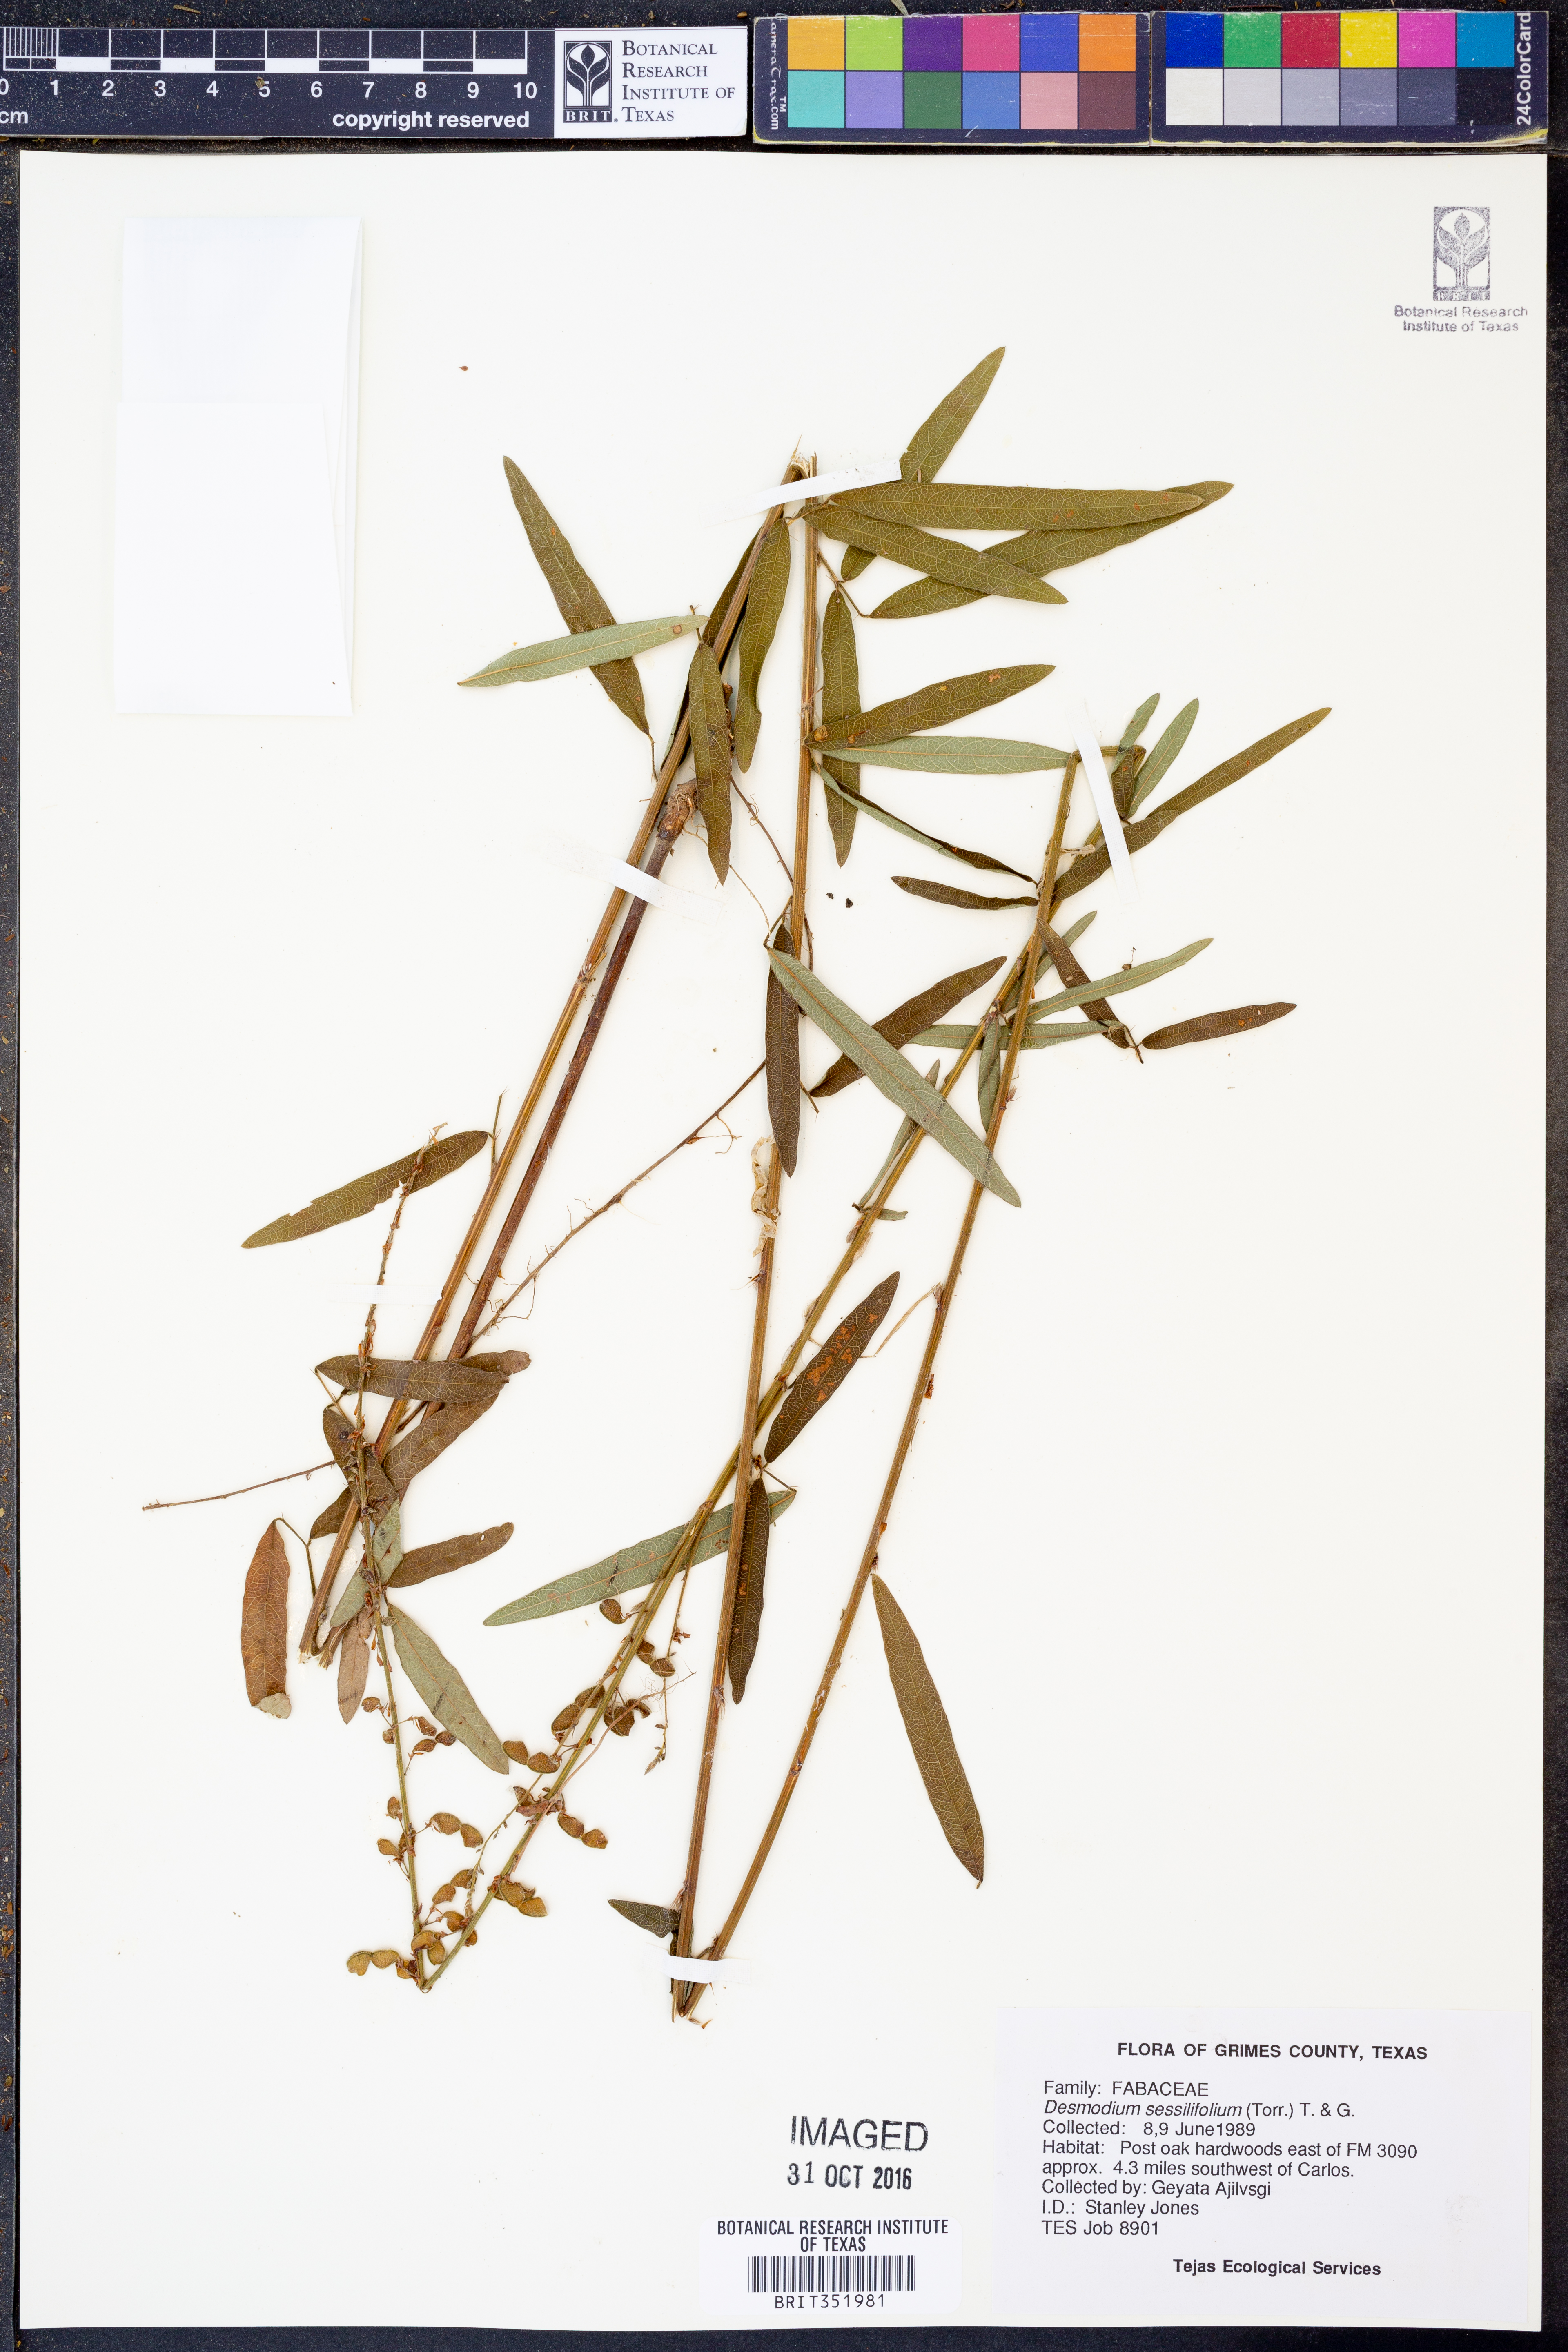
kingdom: Plantae
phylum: Tracheophyta
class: Magnoliopsida
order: Fabales
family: Fabaceae
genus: Desmodium
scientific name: Desmodium sessilifolium
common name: Sessile tick-clover
